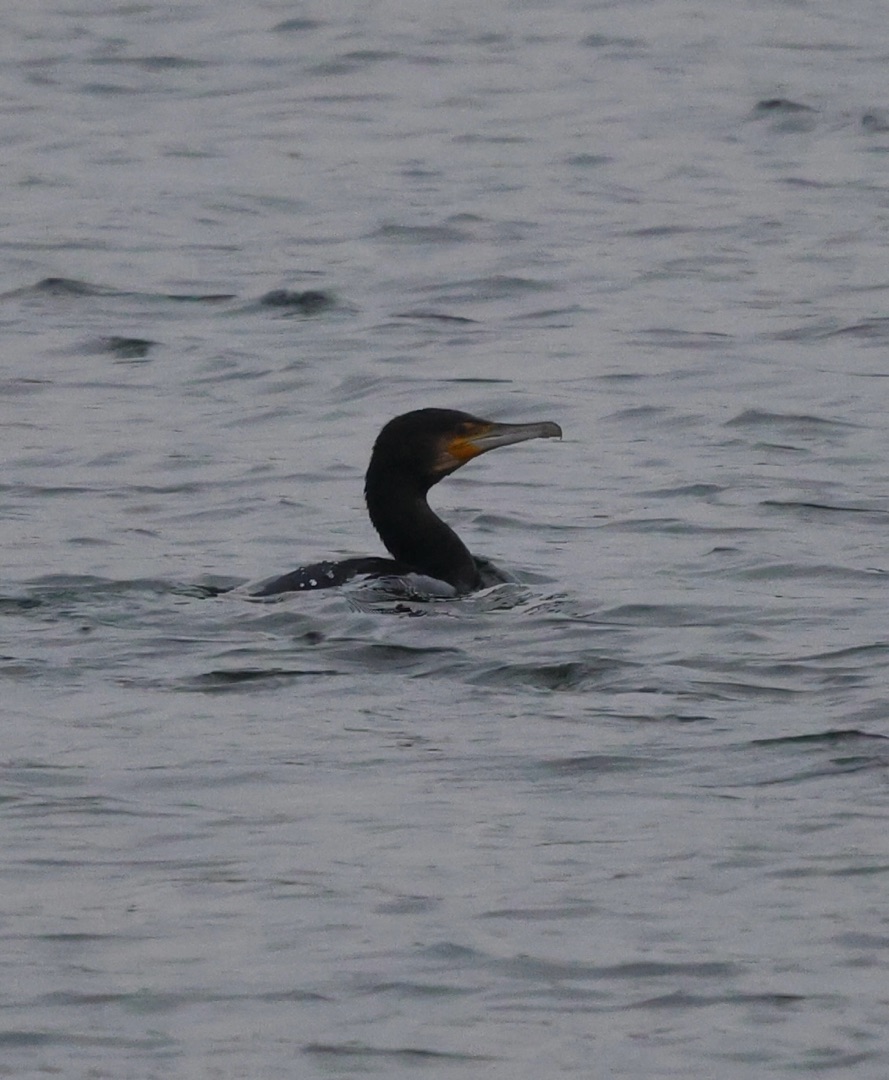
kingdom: Animalia
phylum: Chordata
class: Aves
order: Suliformes
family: Phalacrocoracidae
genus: Phalacrocorax
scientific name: Phalacrocorax carbo
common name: Skarv
